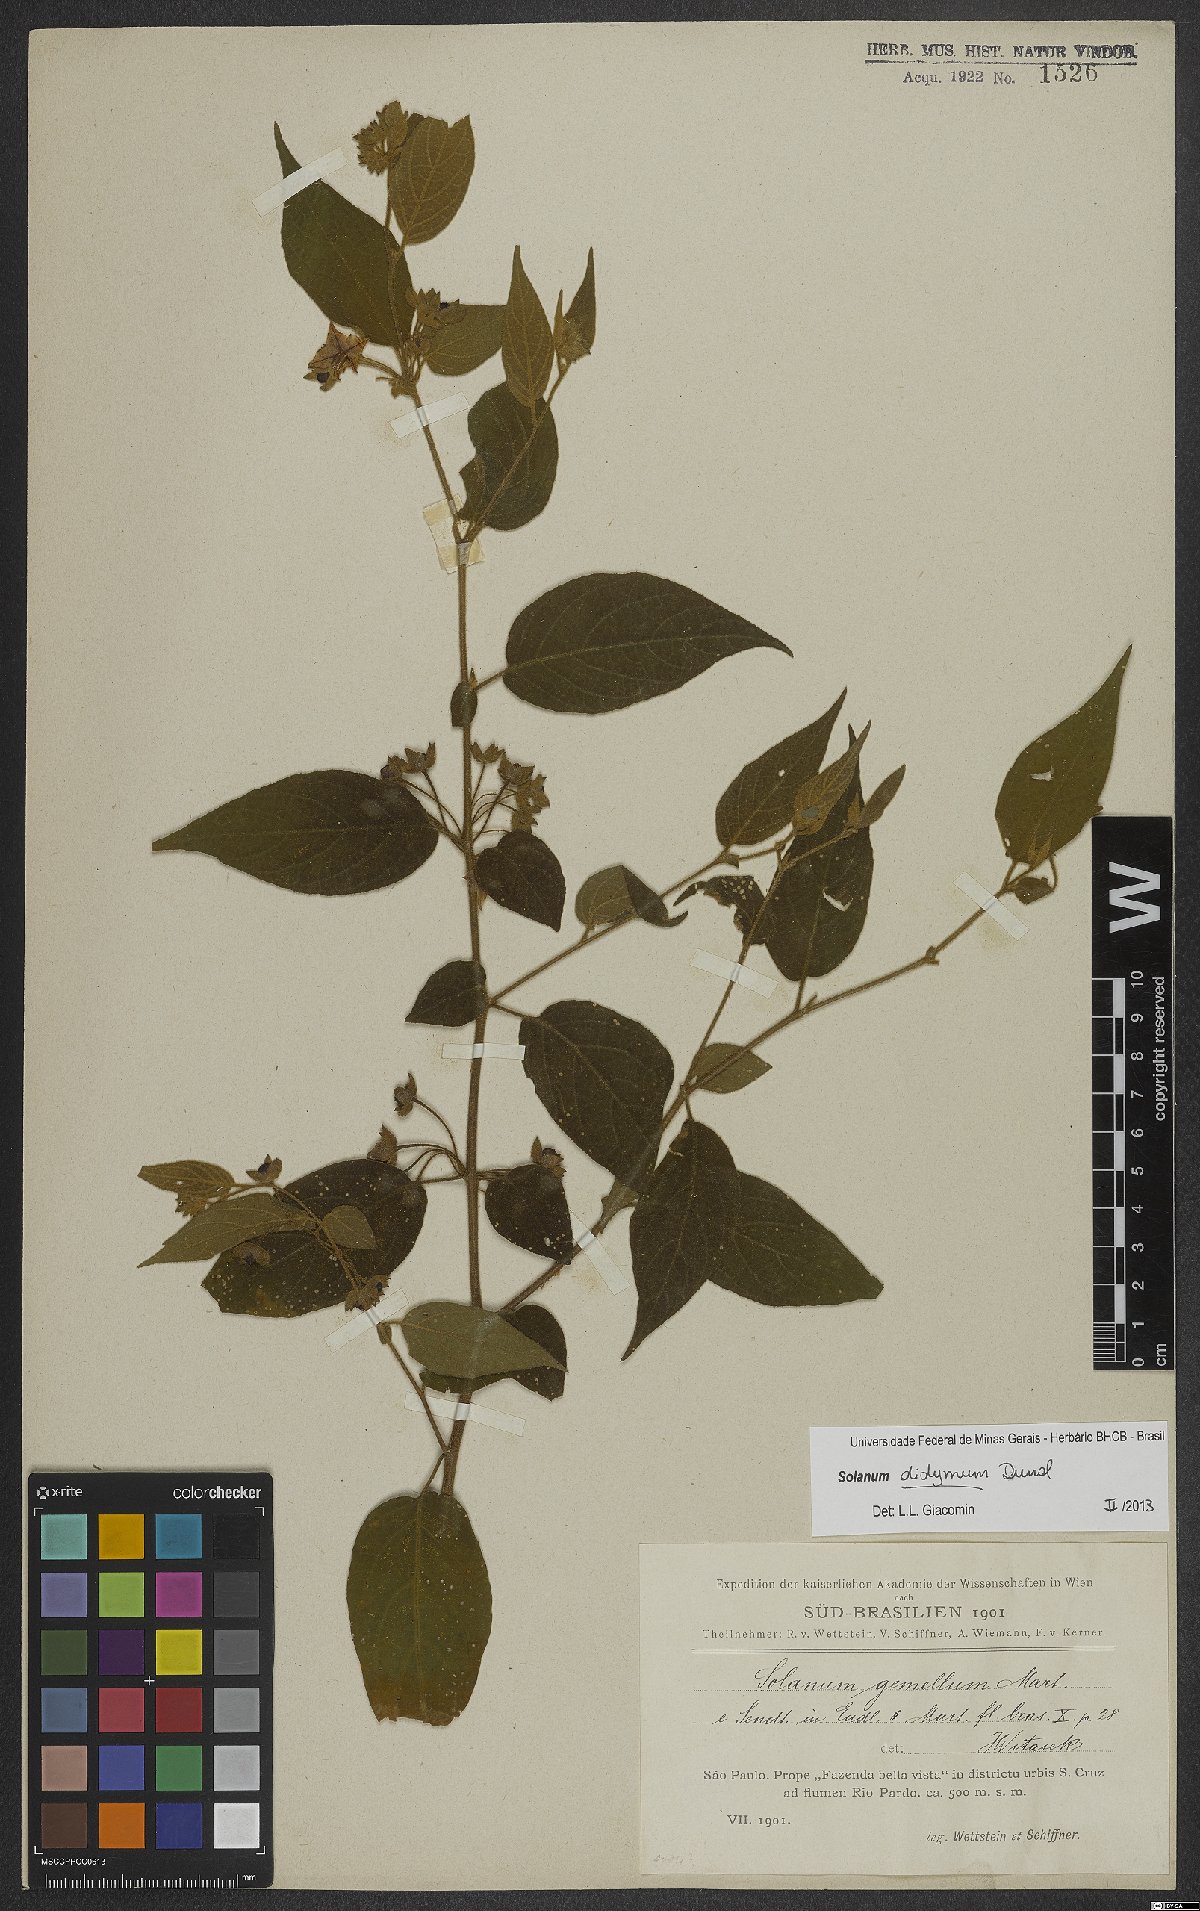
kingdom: Plantae
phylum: Tracheophyta
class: Magnoliopsida
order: Solanales
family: Solanaceae
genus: Solanum
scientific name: Solanum didymum
